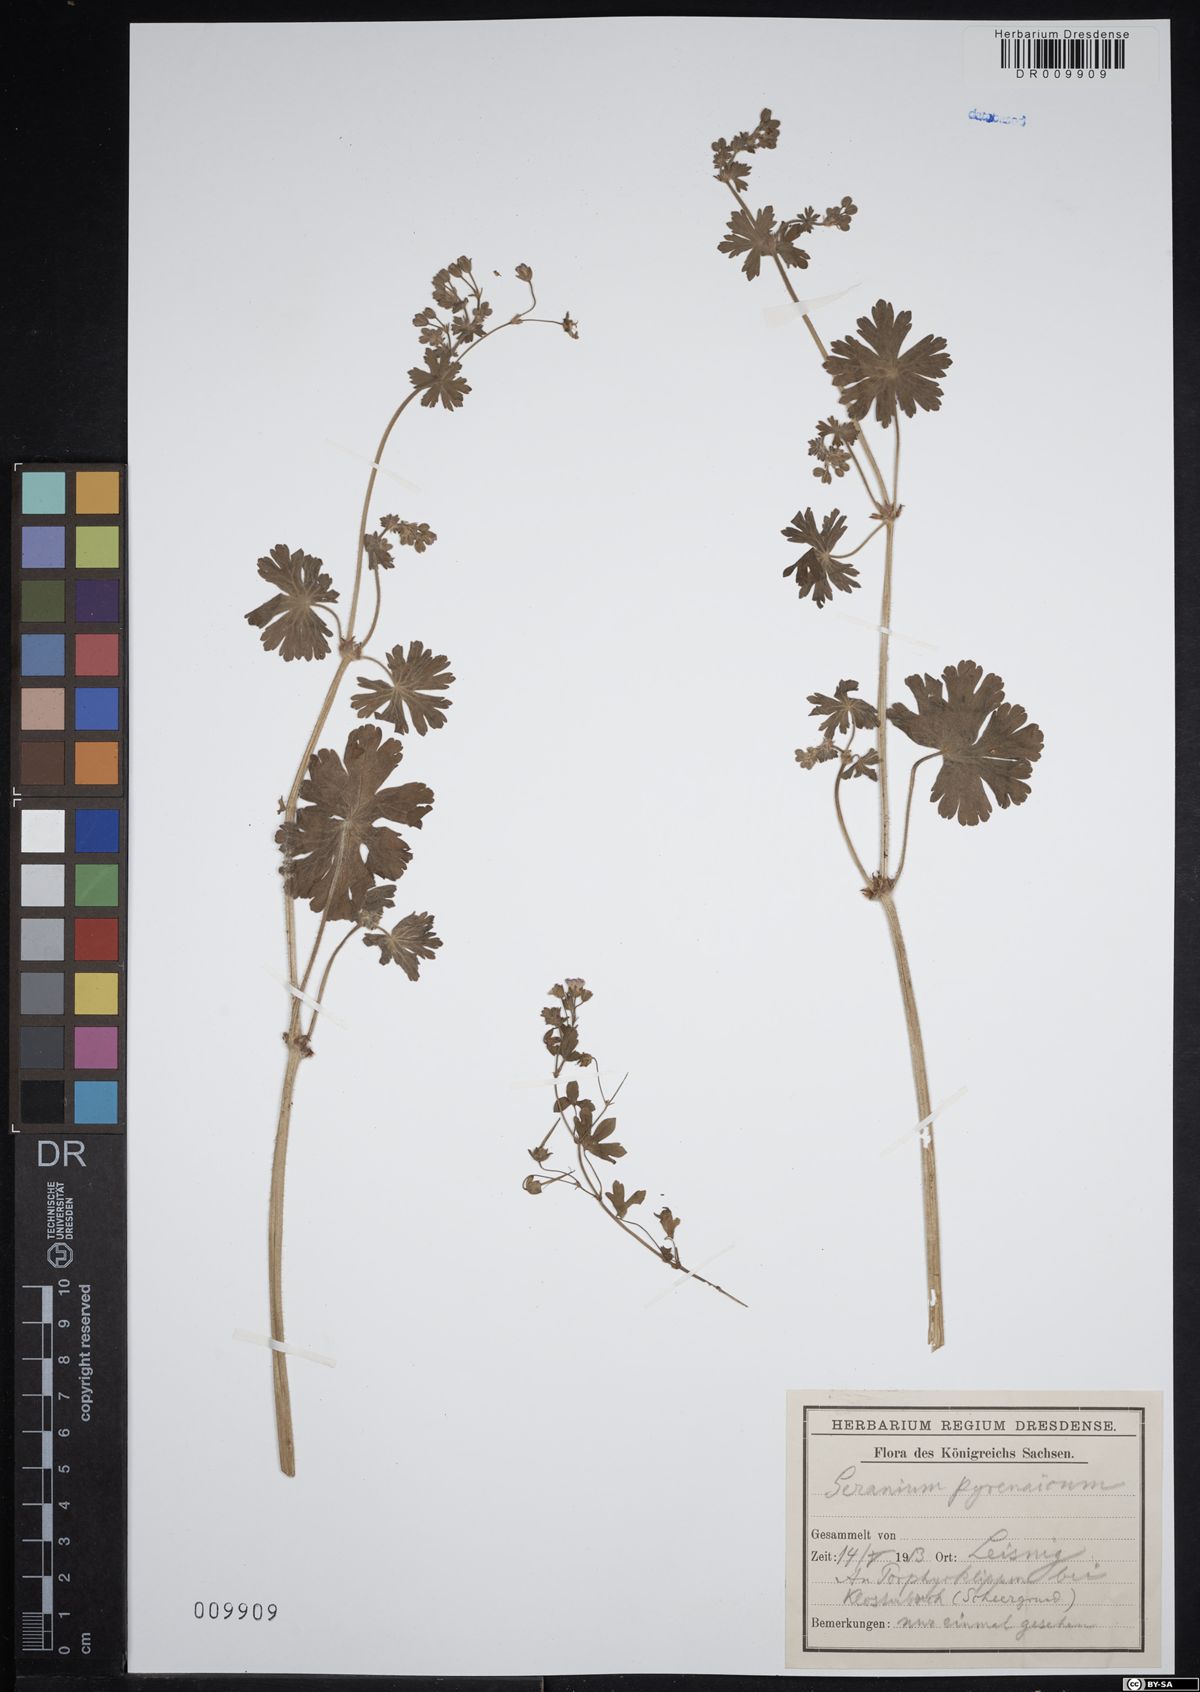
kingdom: Plantae
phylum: Tracheophyta
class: Magnoliopsida
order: Geraniales
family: Geraniaceae
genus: Geranium
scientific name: Geranium pyrenaicum
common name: Hedgerow crane's-bill
